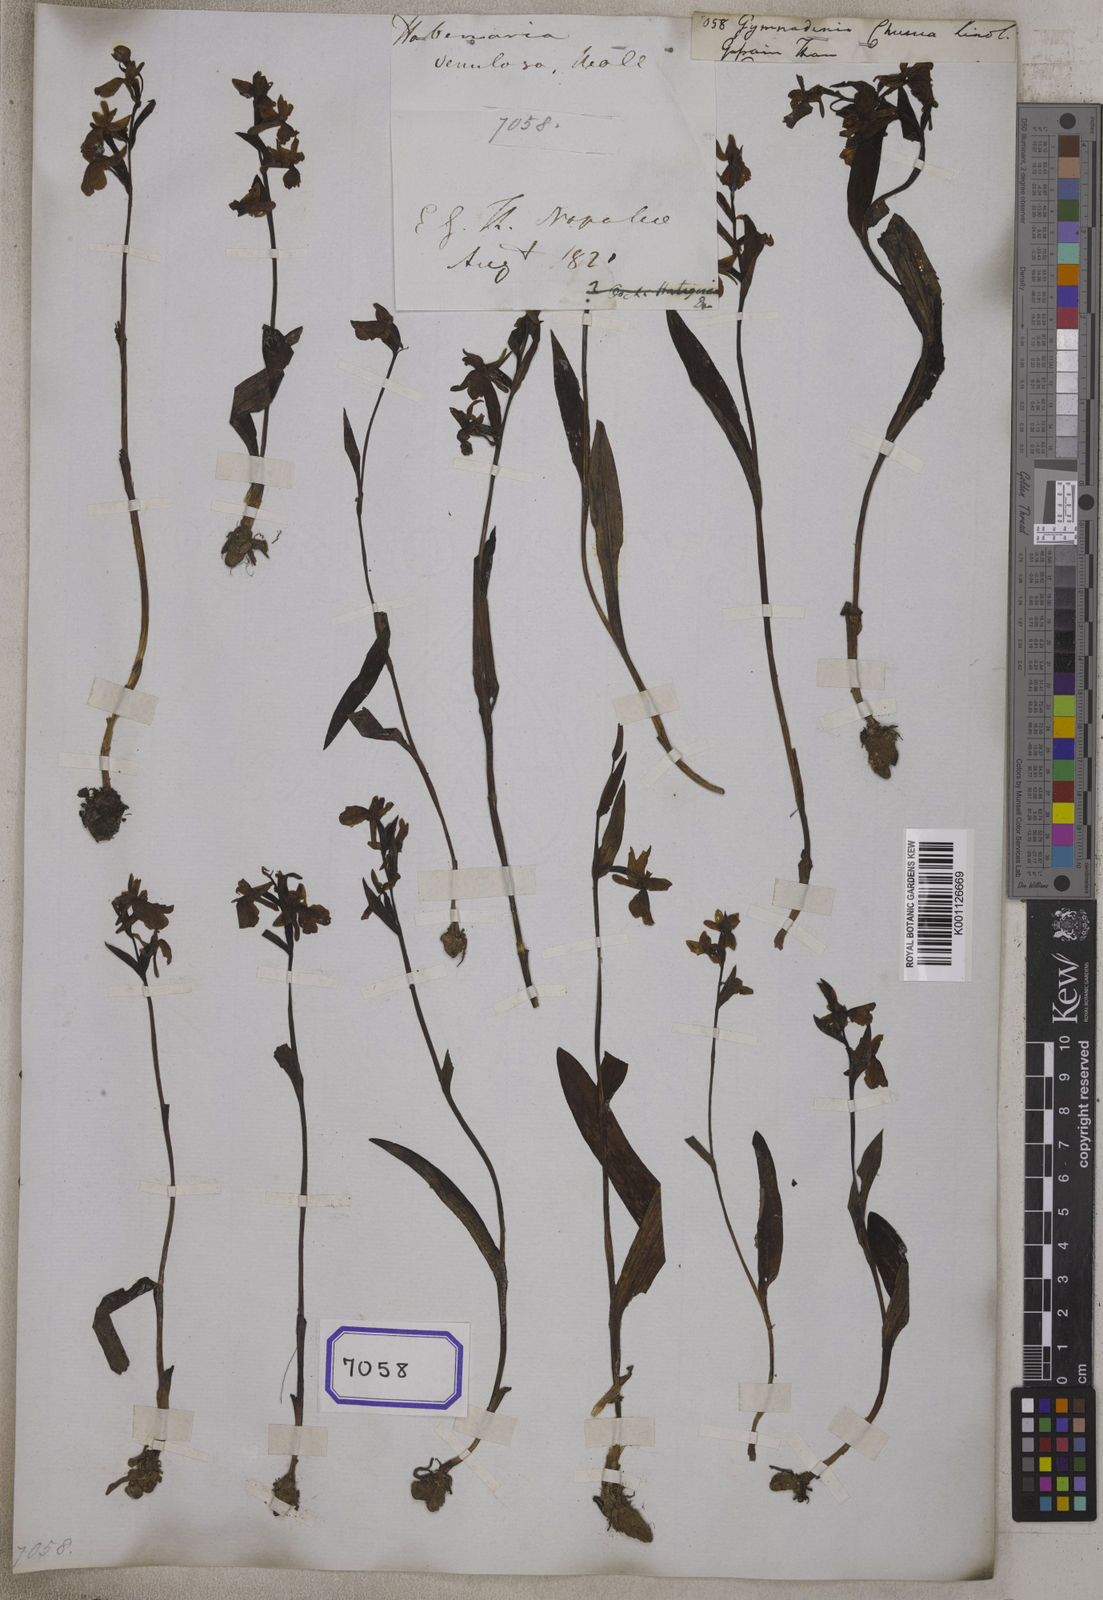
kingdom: Plantae
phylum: Tracheophyta
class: Liliopsida
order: Asparagales
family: Orchidaceae
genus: Hemipilia
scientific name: Hemipilia chusua
